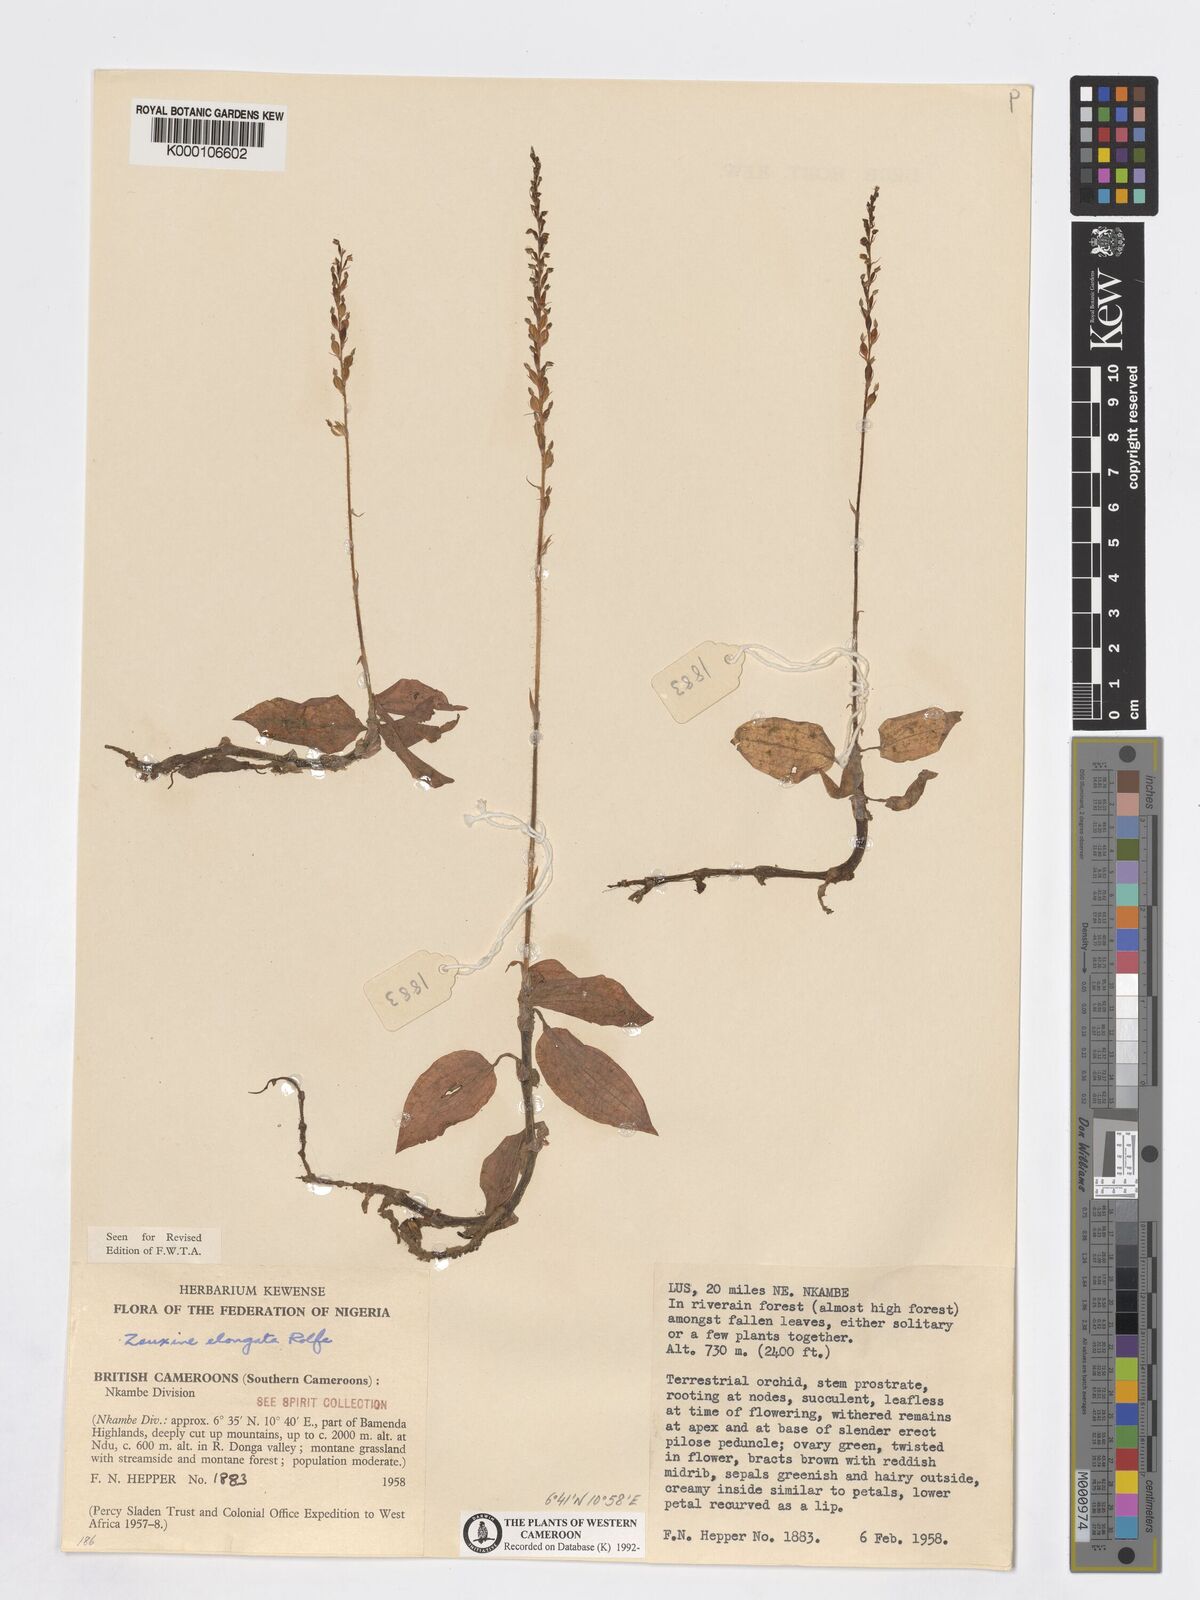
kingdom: Plantae
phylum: Tracheophyta
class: Liliopsida
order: Asparagales
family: Orchidaceae
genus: Zeuxine
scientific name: Zeuxine elongata
